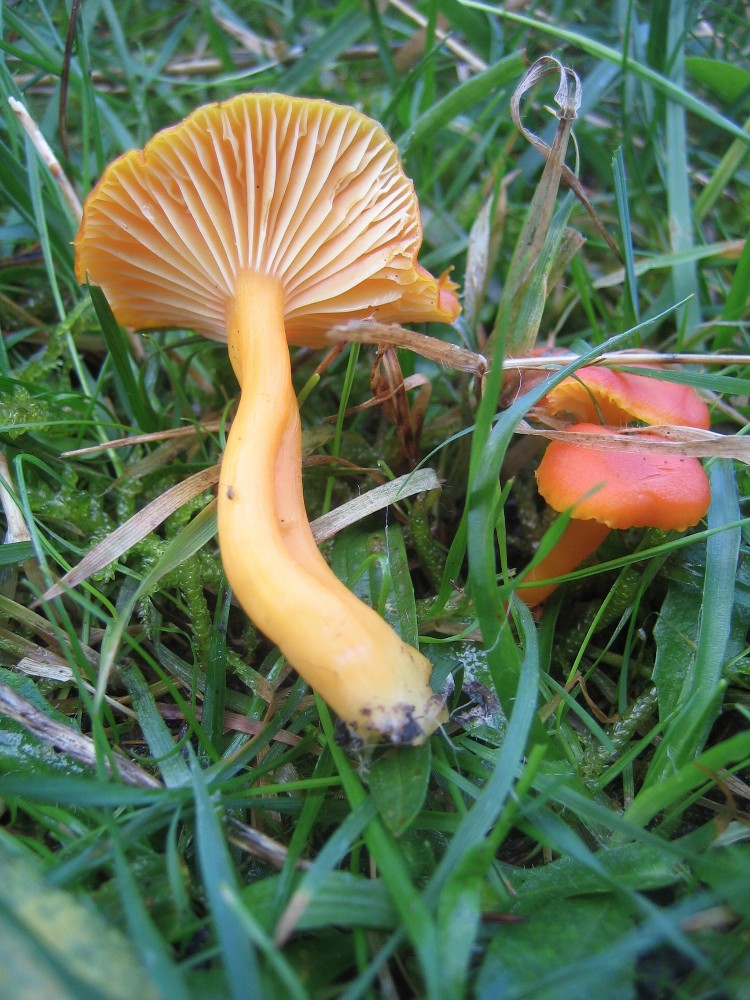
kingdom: Fungi
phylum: Basidiomycota
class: Agaricomycetes
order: Agaricales
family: Hygrophoraceae
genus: Hygrocybe
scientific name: Hygrocybe reidii
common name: honning-vokshat
